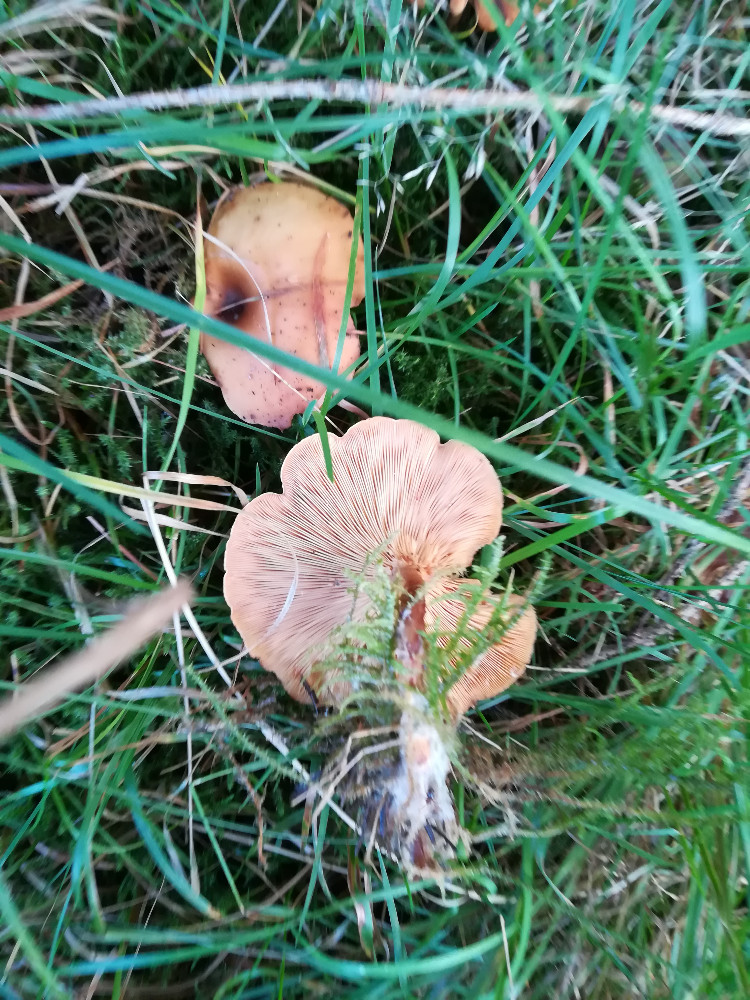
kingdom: Fungi
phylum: Basidiomycota
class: Agaricomycetes
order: Agaricales
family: Tricholomataceae
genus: Paralepista
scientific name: Paralepista flaccida
